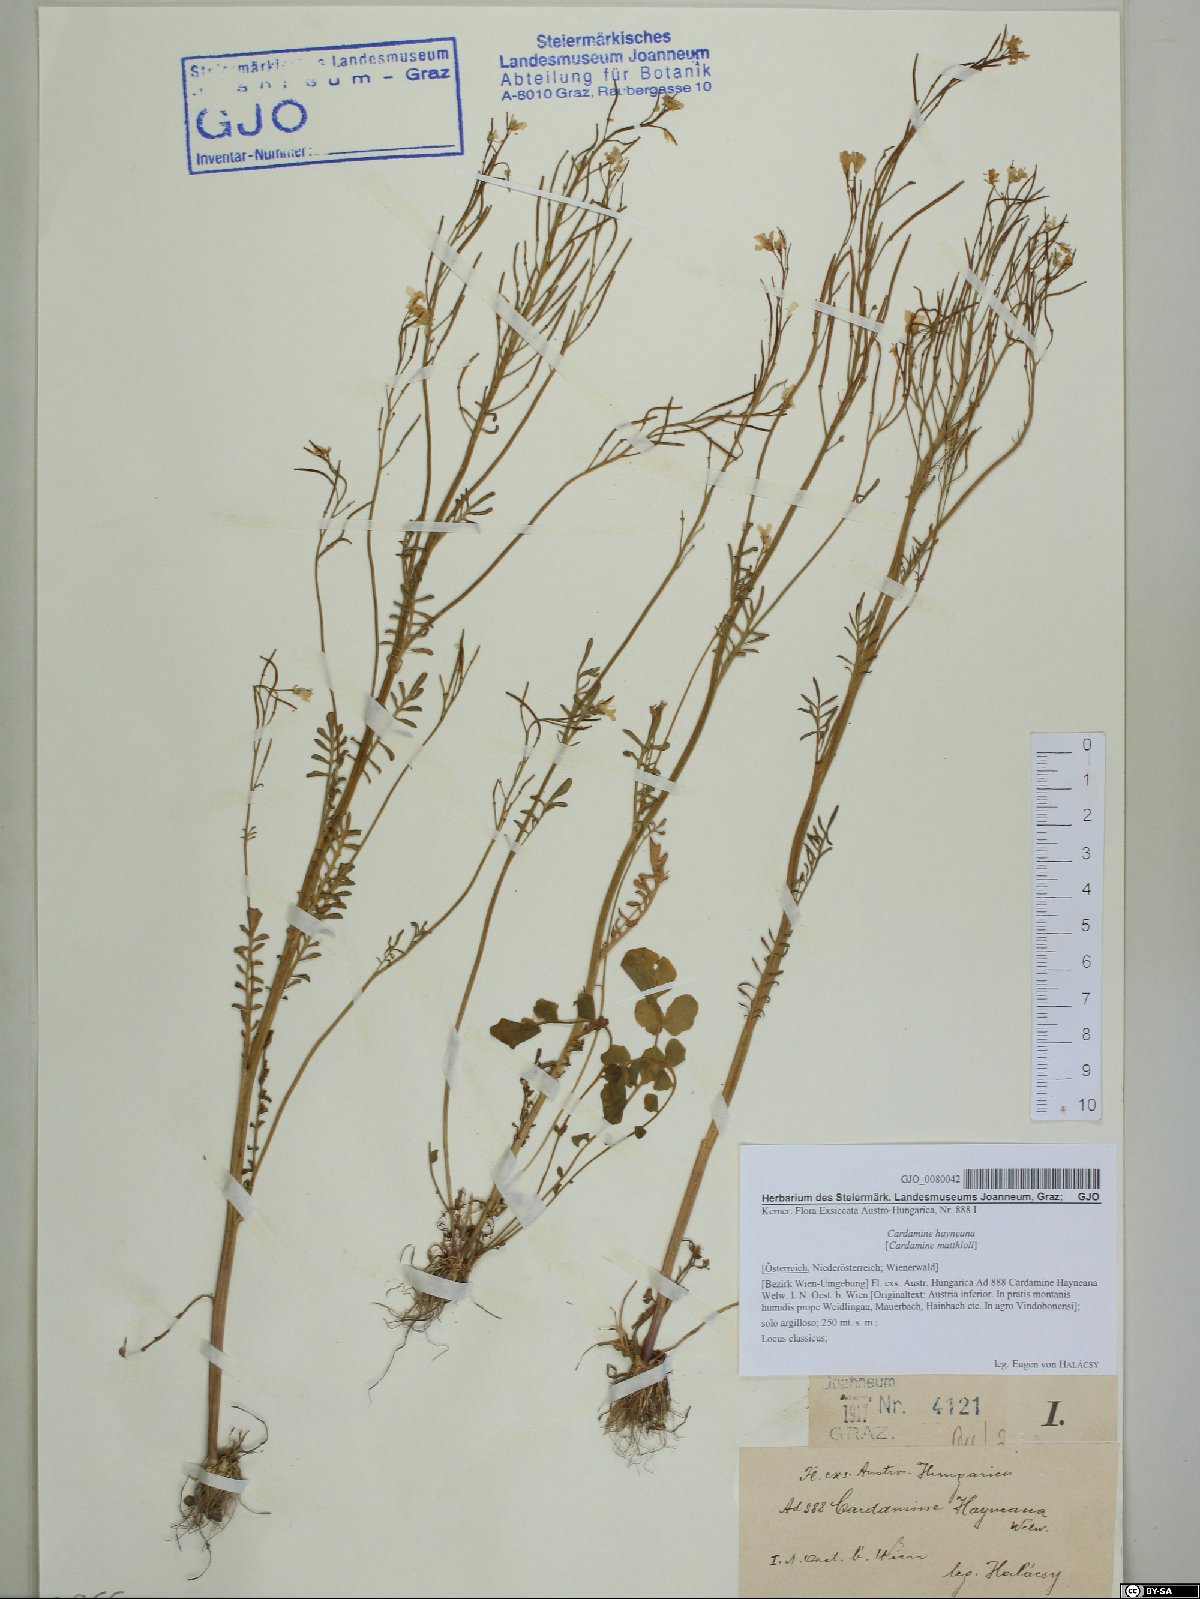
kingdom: Plantae
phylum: Tracheophyta
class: Magnoliopsida
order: Brassicales
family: Brassicaceae
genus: Cardamine
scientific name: Cardamine matthioli
